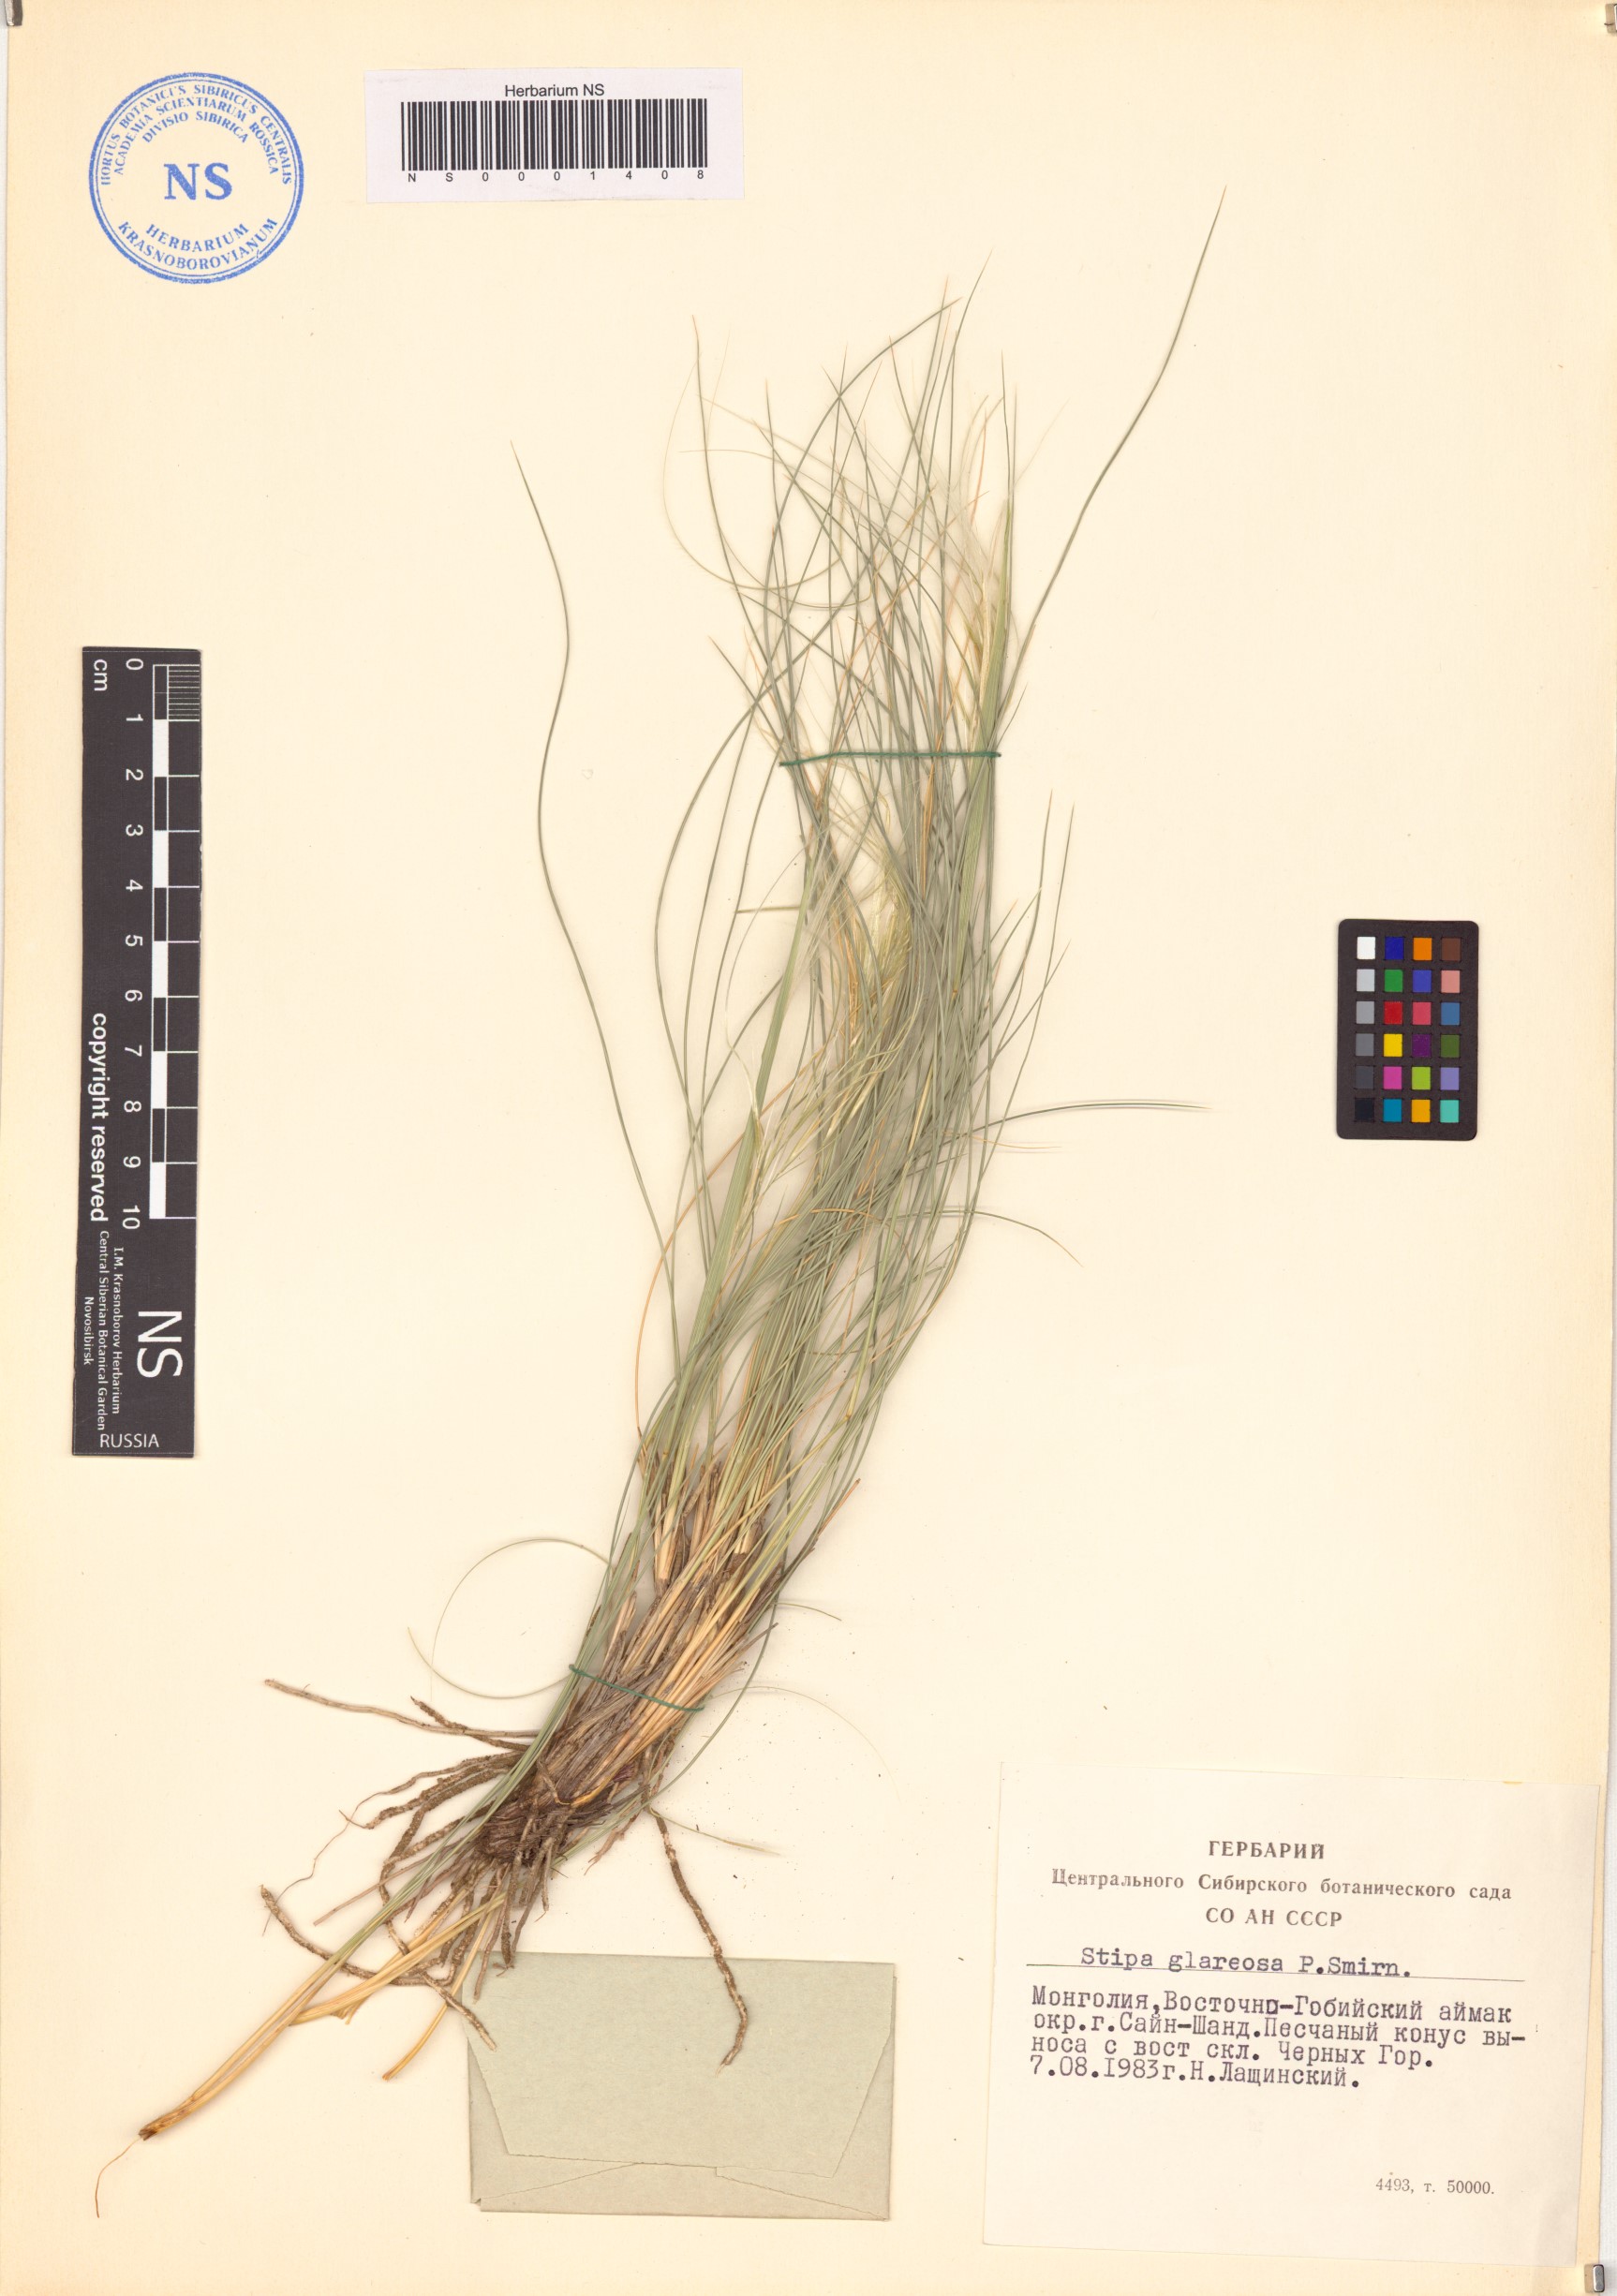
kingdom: Plantae
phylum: Tracheophyta
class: Liliopsida
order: Poales
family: Poaceae
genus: Stipa
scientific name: Stipa glareosa
